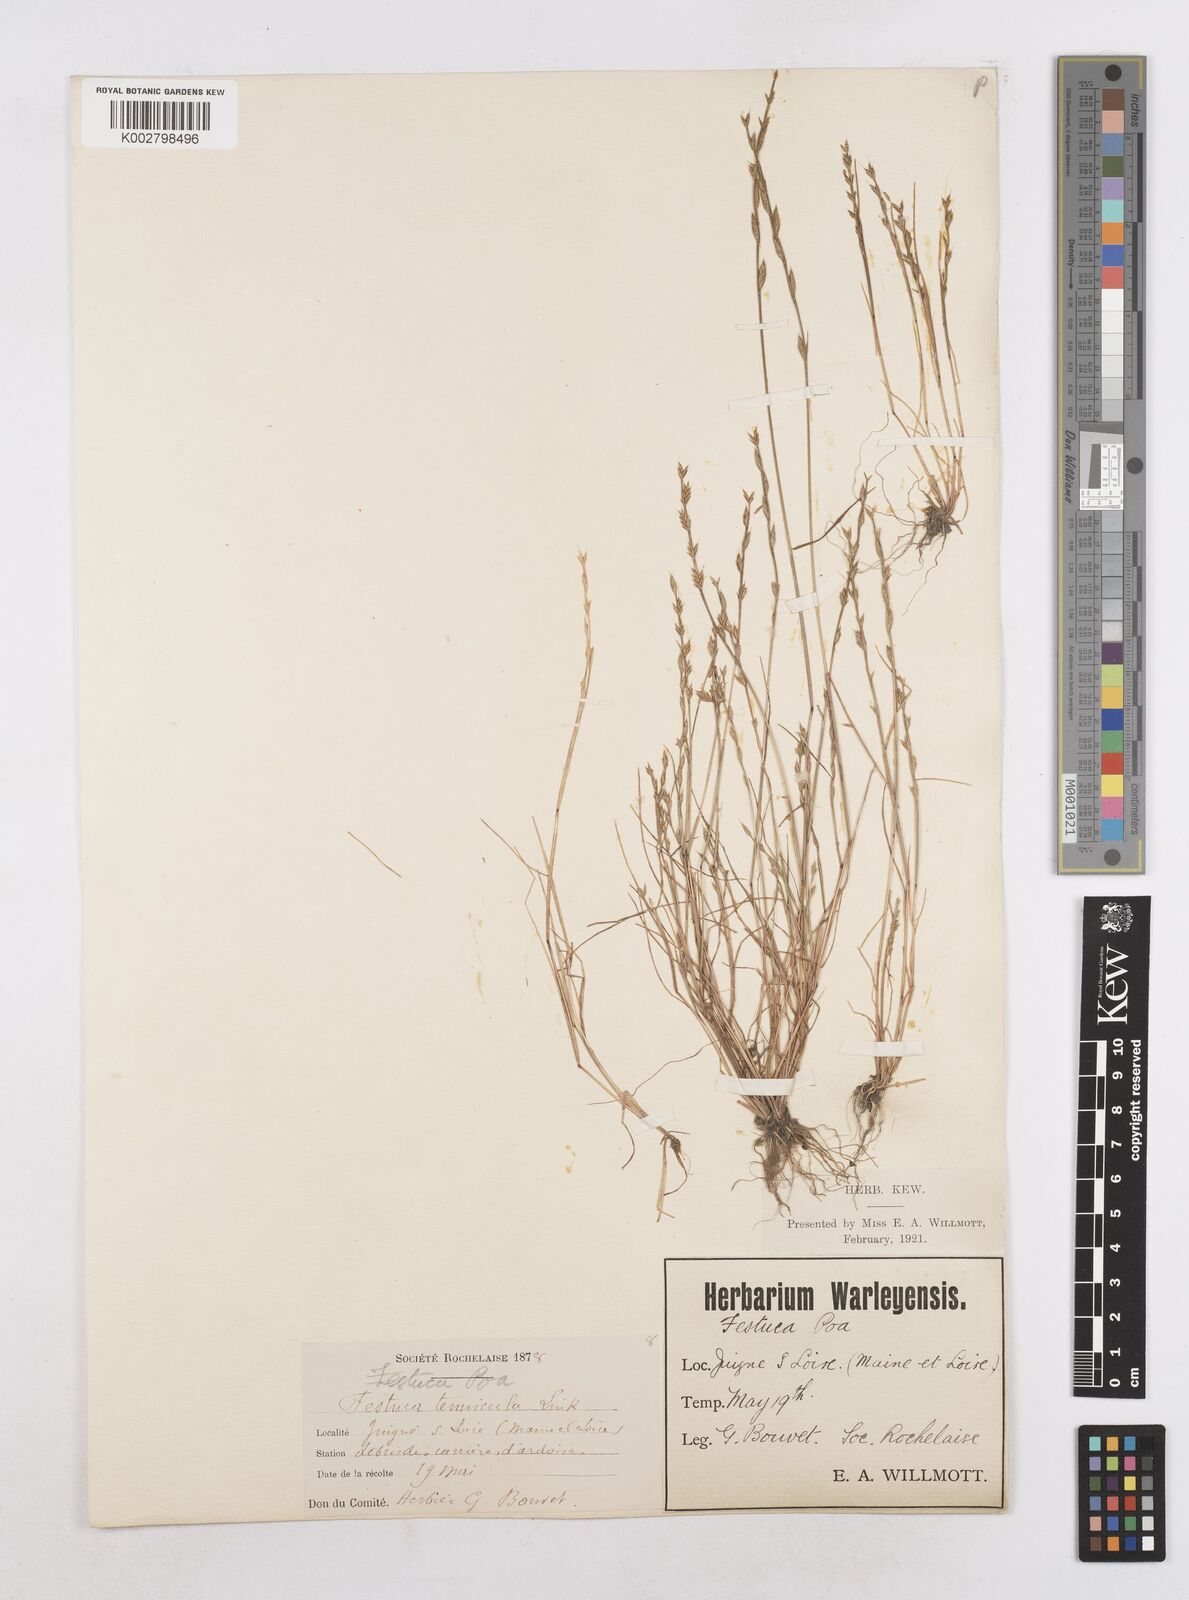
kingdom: Plantae
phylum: Tracheophyta
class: Liliopsida
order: Poales
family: Poaceae
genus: Festuca
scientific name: Festuca lachenalii
